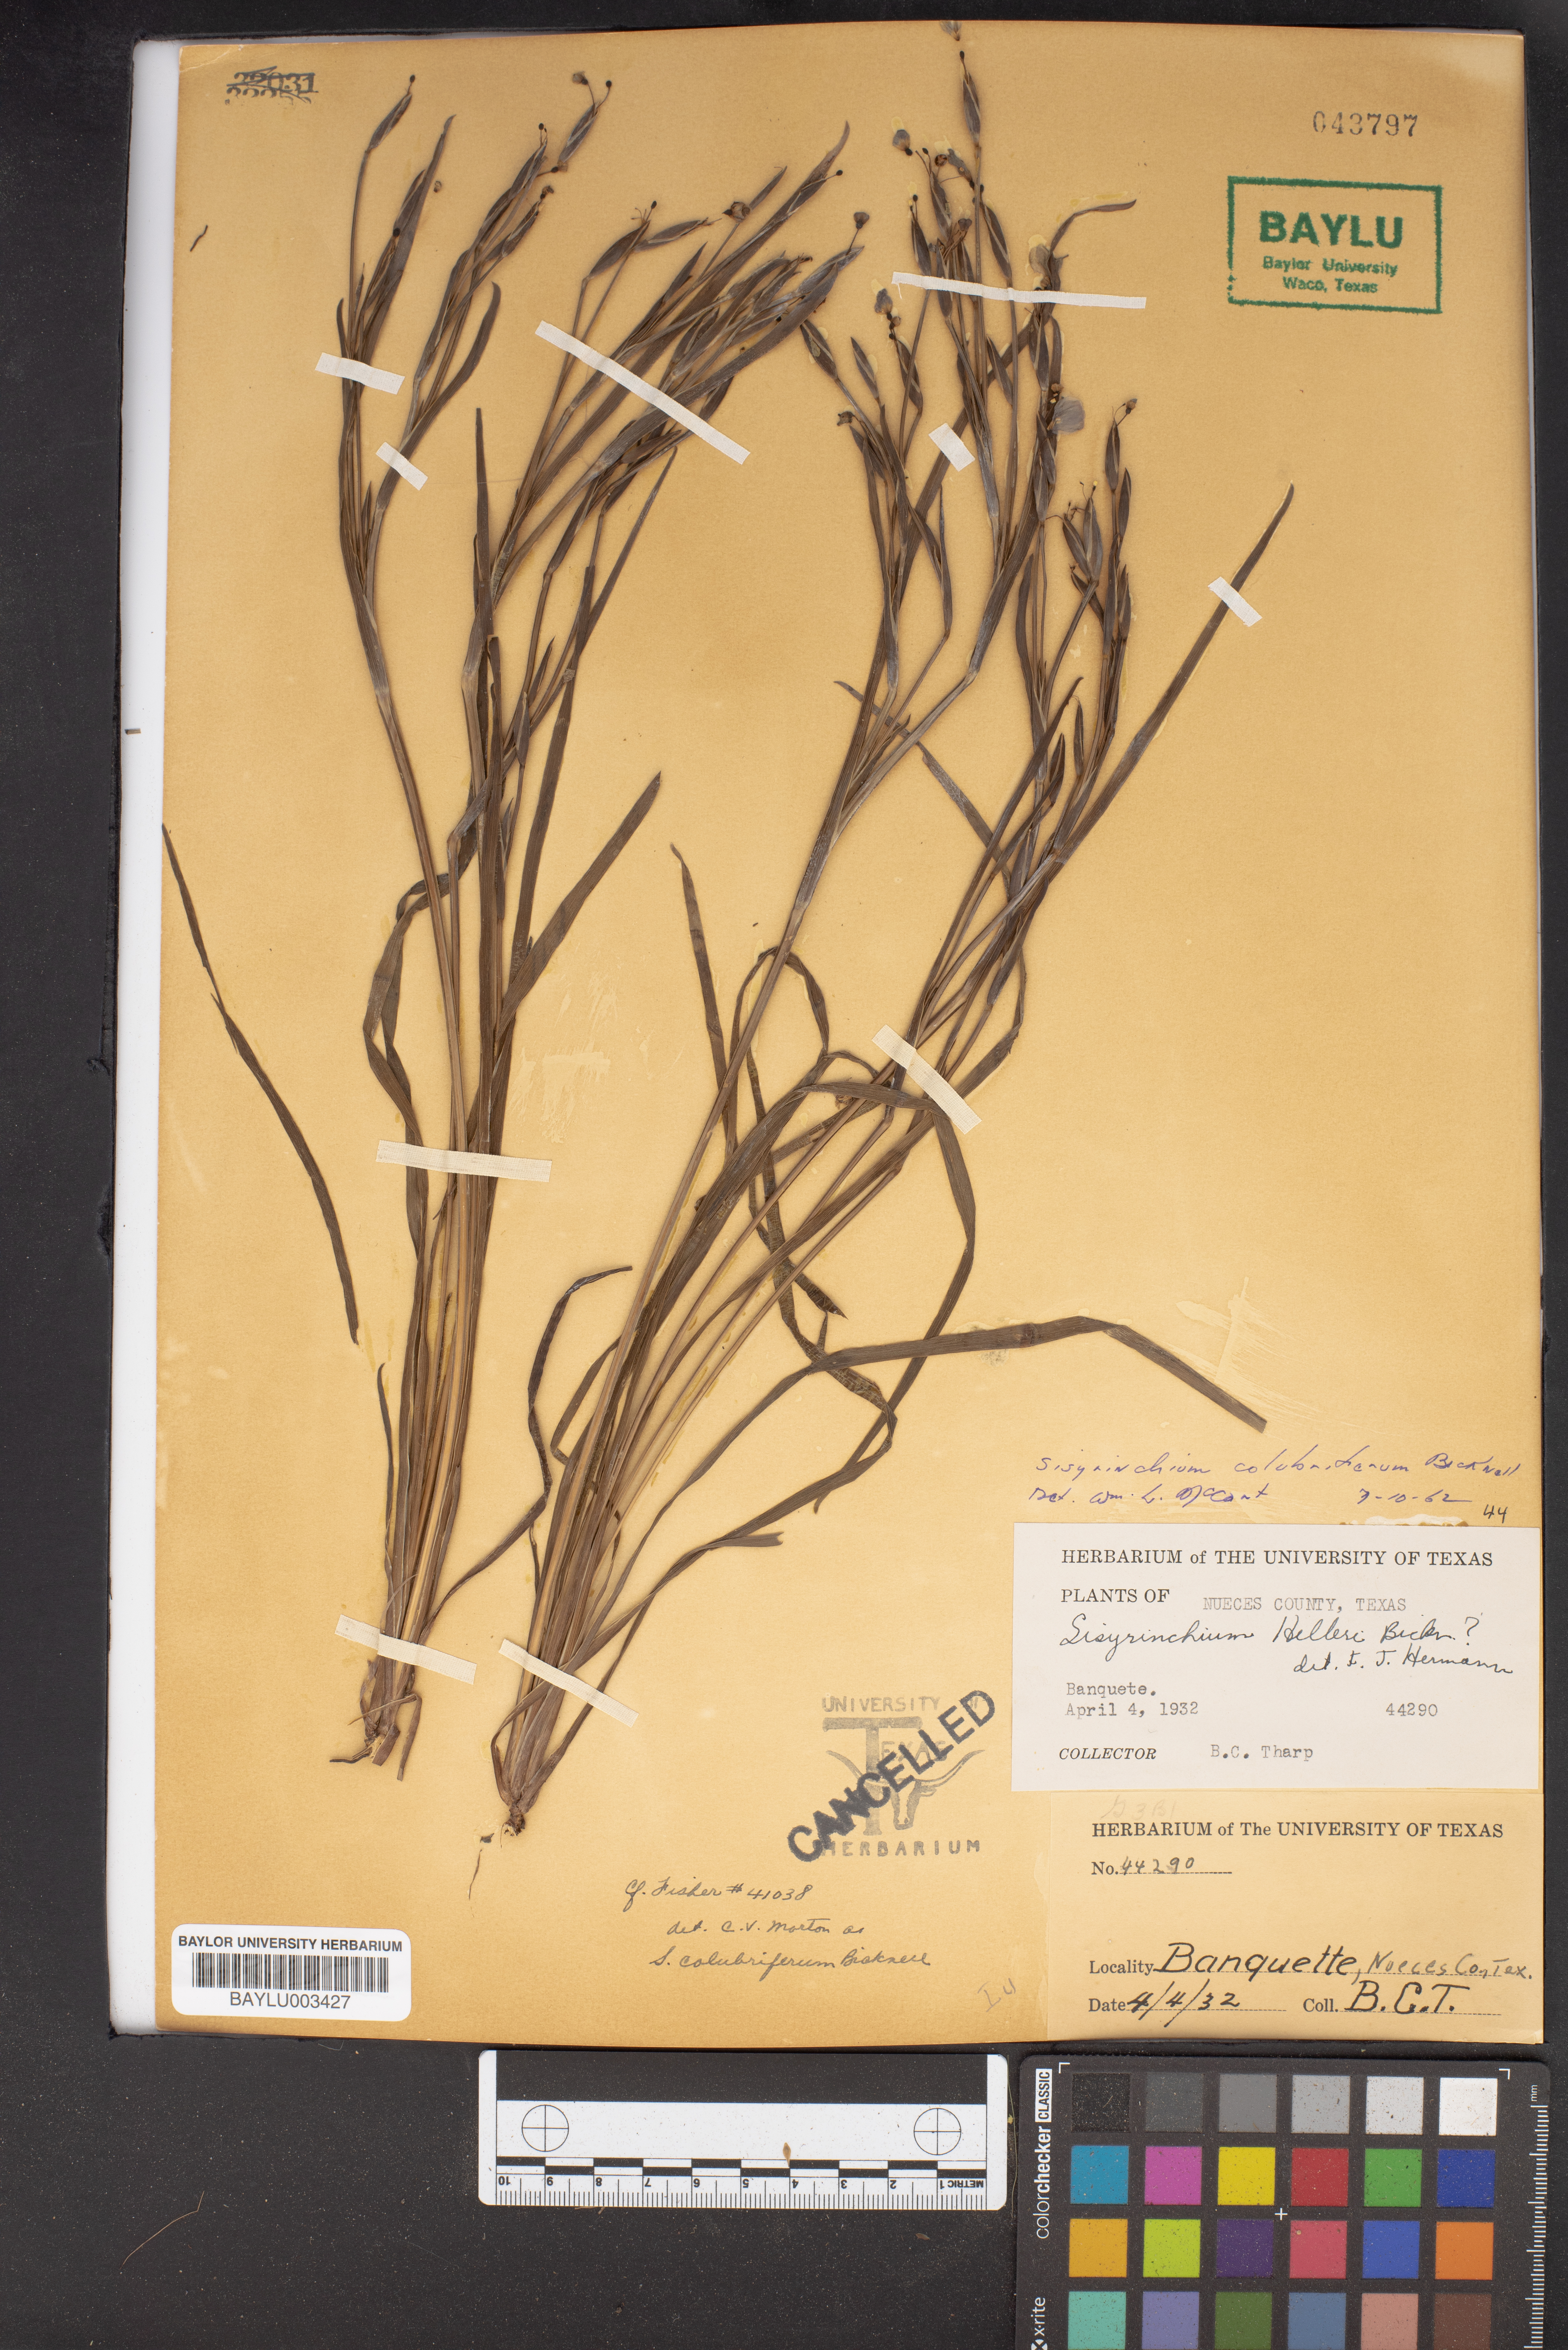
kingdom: Plantae
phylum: Tracheophyta
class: Liliopsida
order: Asparagales
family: Iridaceae
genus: Sisyrinchium
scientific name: Sisyrinchium pruinosum
